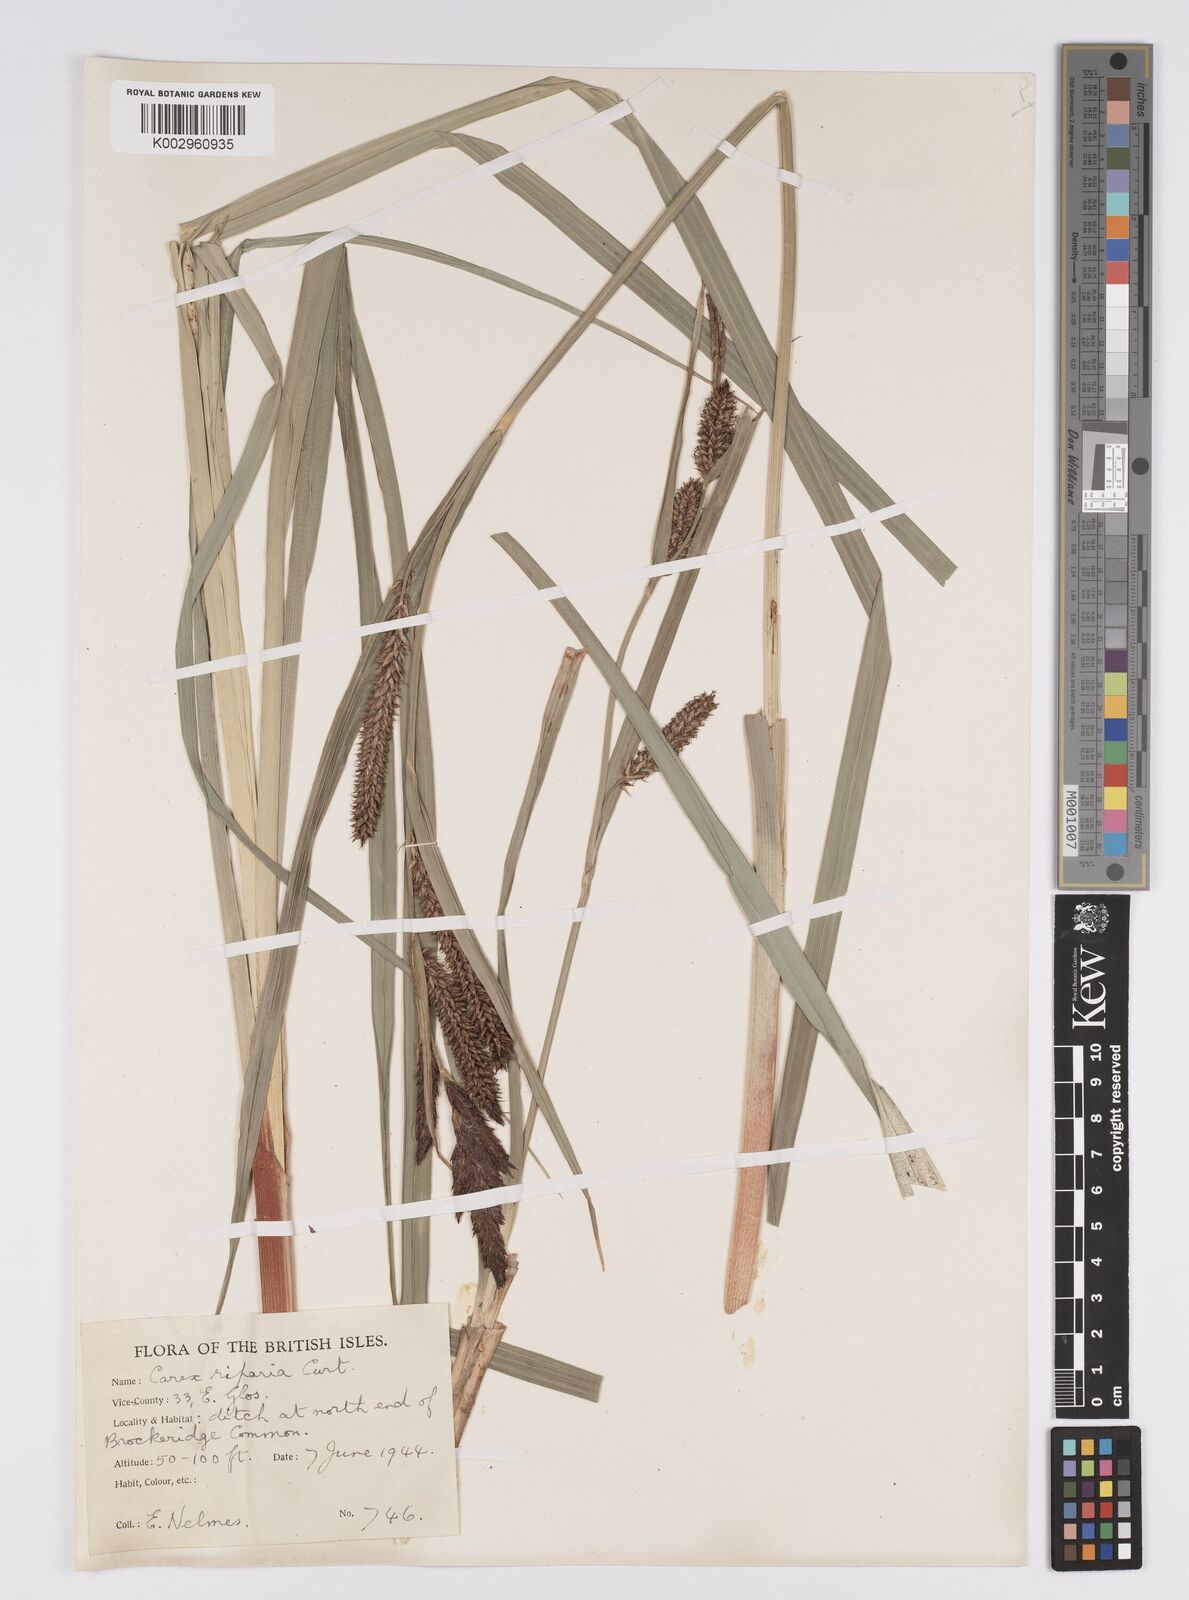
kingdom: Plantae
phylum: Tracheophyta
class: Liliopsida
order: Poales
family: Cyperaceae
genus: Carex
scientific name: Carex riparia
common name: Greater pond-sedge
